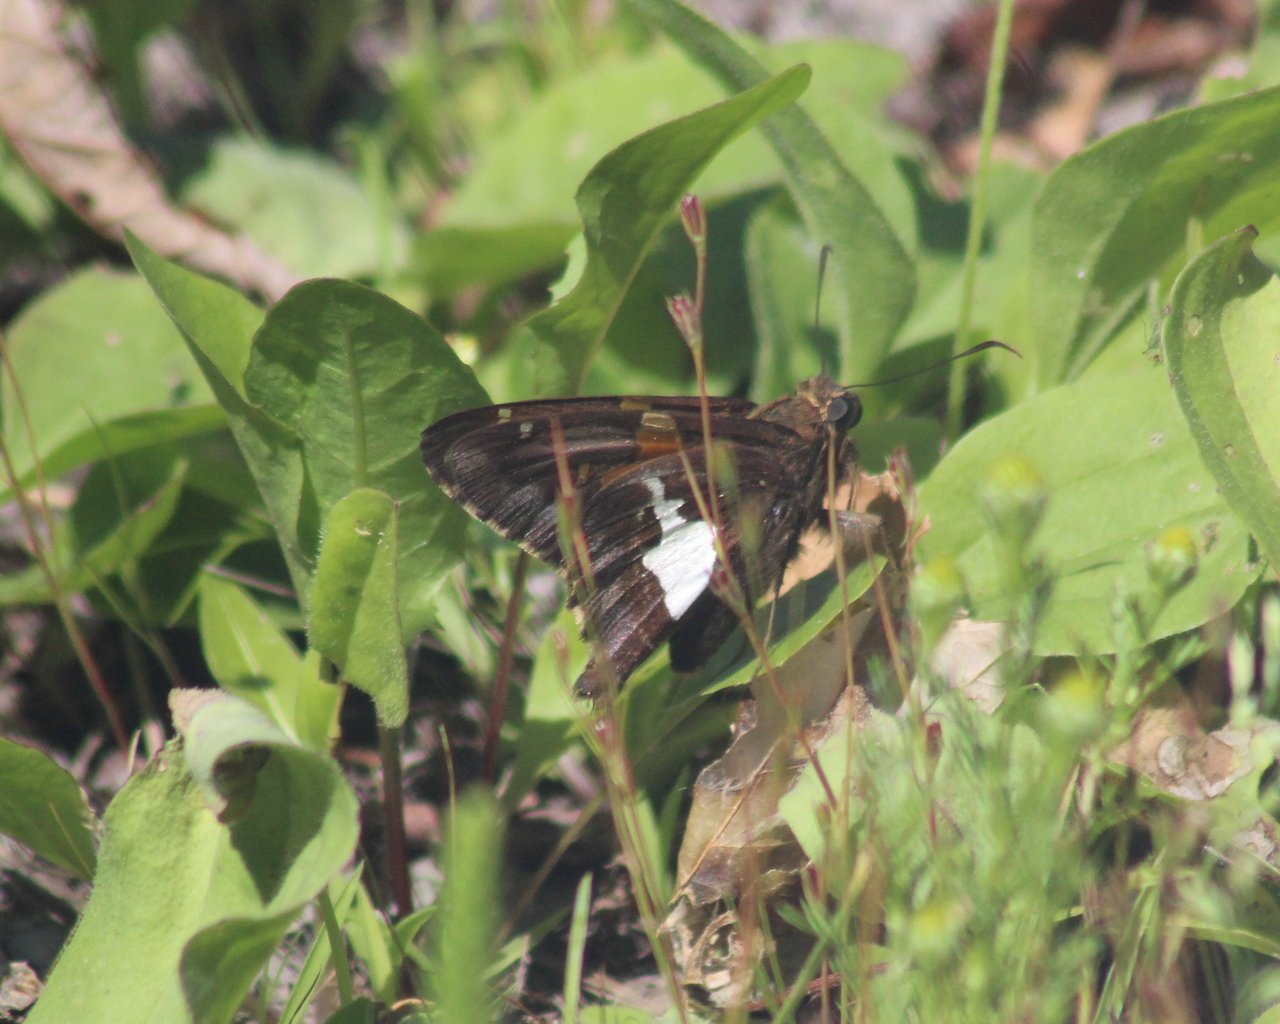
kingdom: Animalia
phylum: Arthropoda
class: Insecta
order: Lepidoptera
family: Hesperiidae
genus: Epargyreus
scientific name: Epargyreus clarus
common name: Silver-spotted Skipper
